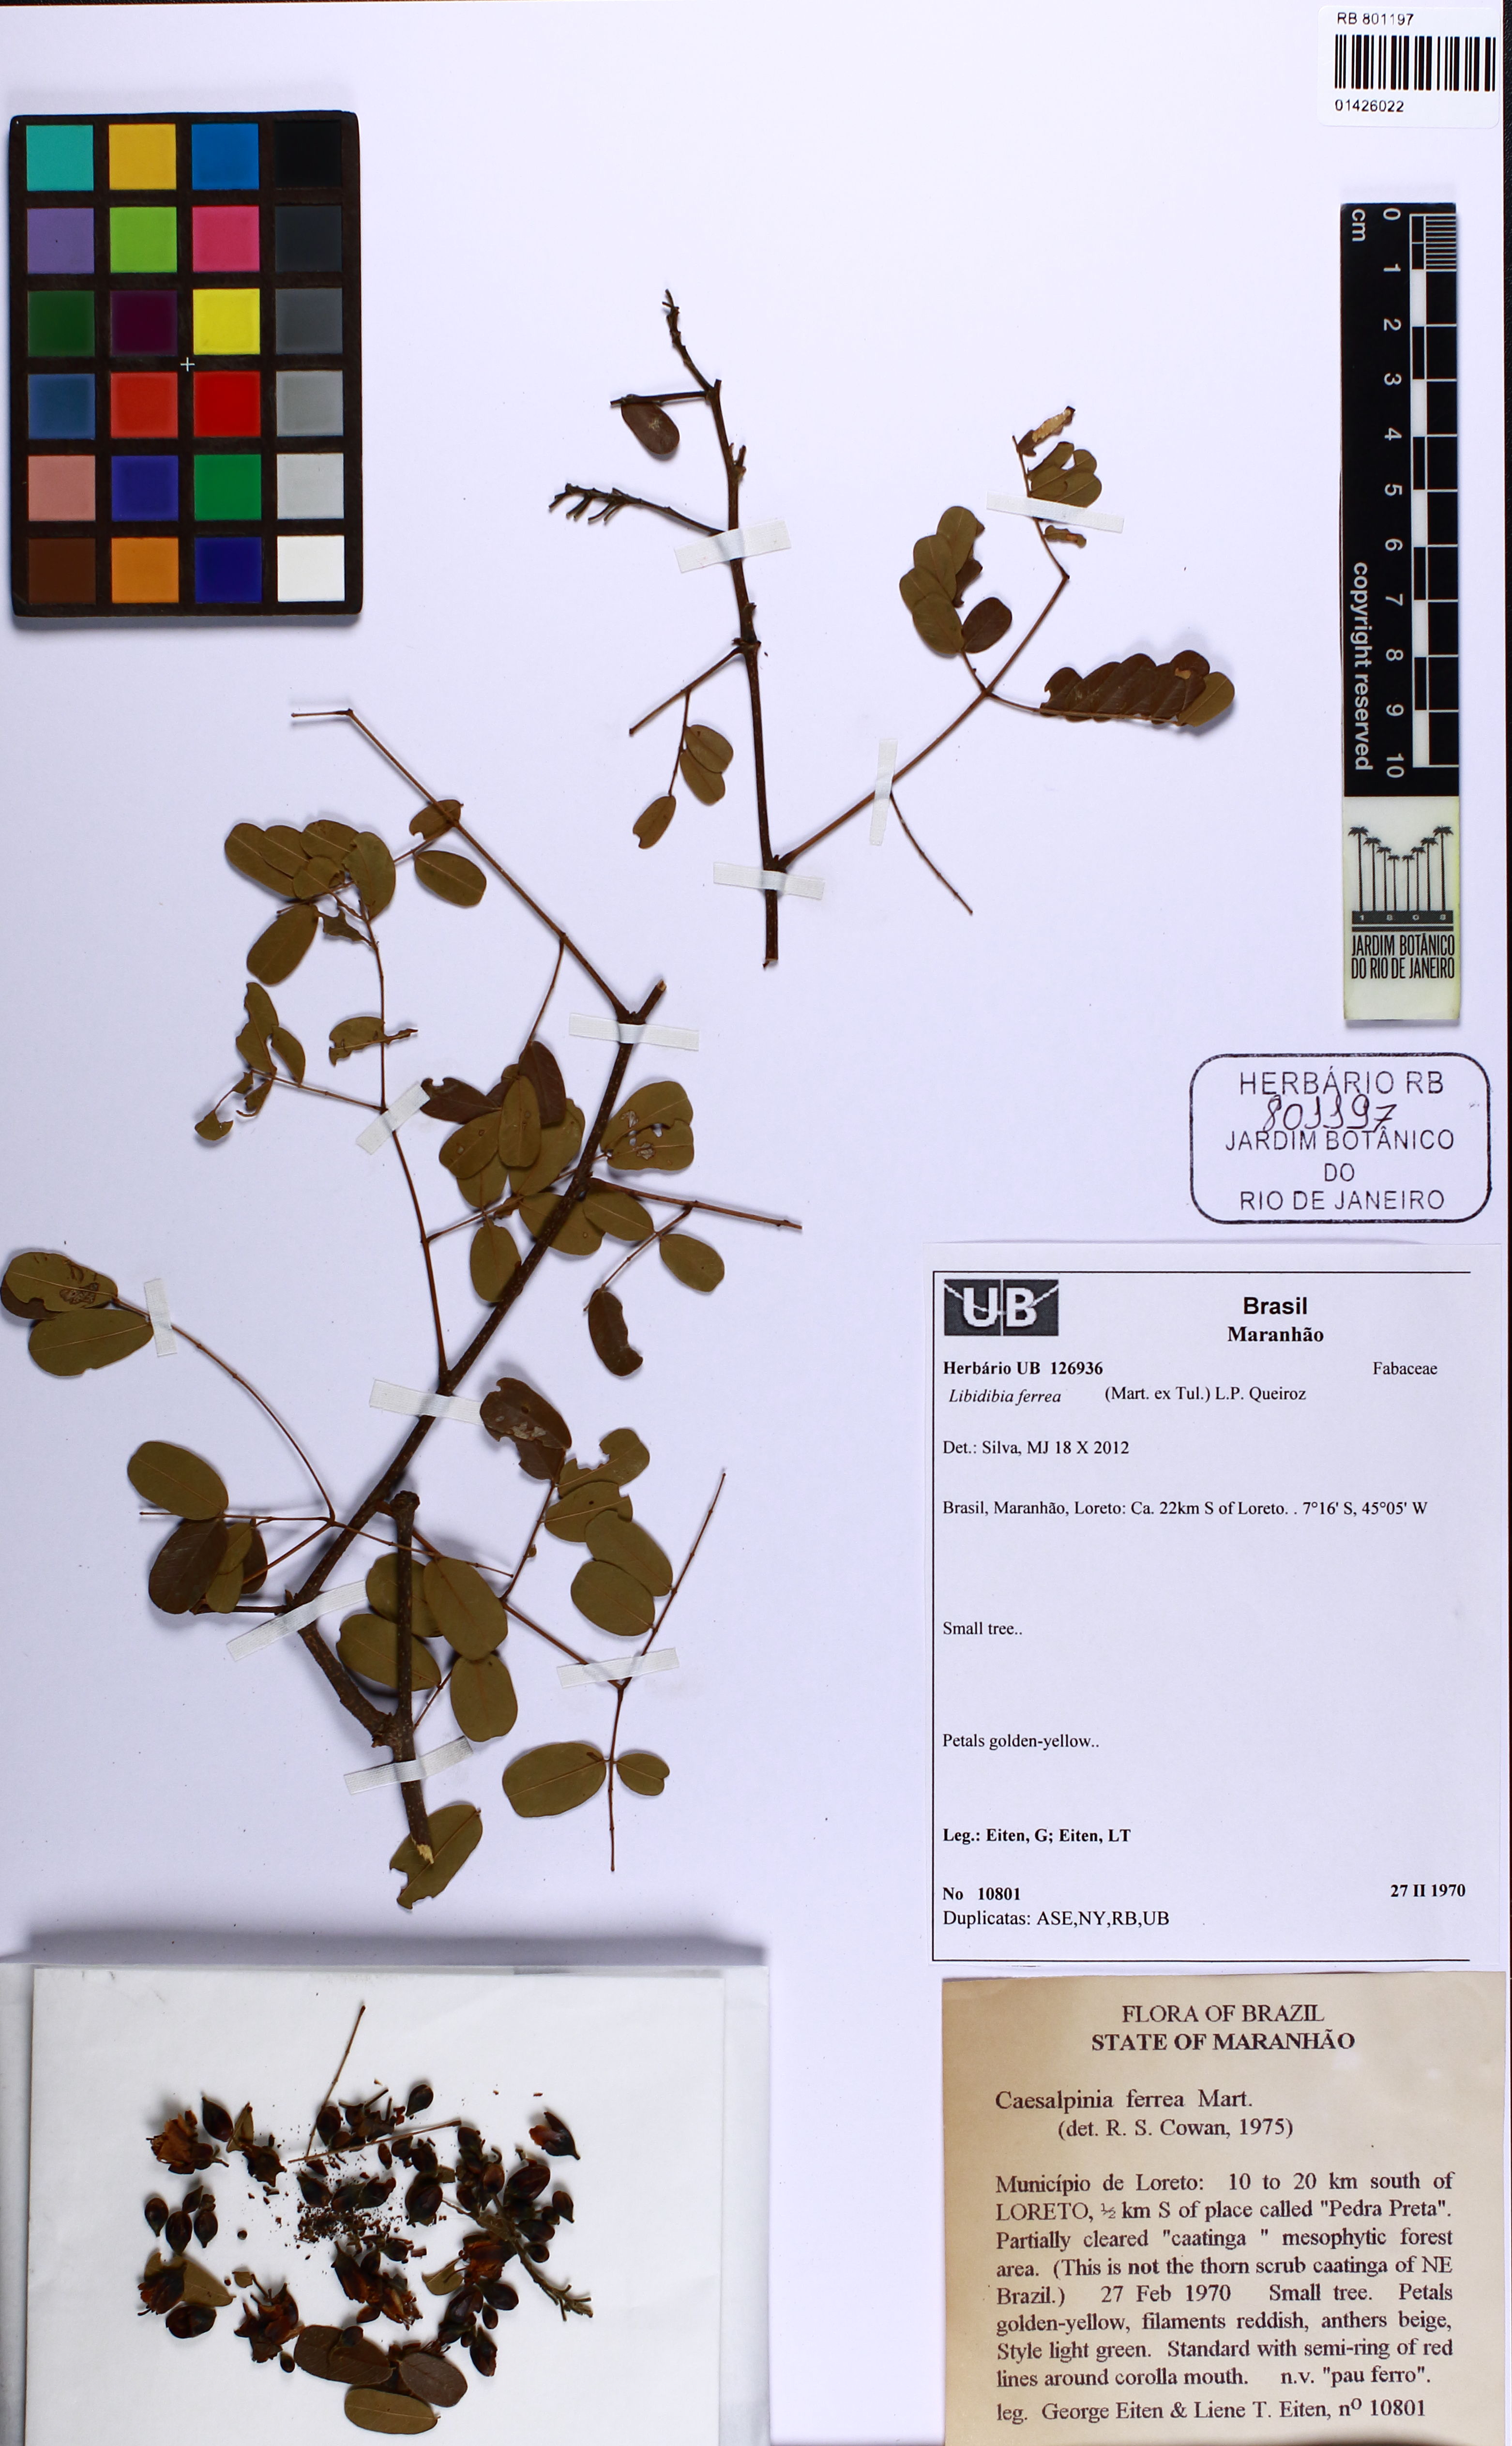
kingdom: Plantae
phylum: Tracheophyta
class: Magnoliopsida
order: Fabales
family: Fabaceae
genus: Libidibia
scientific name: Libidibia ferrea
